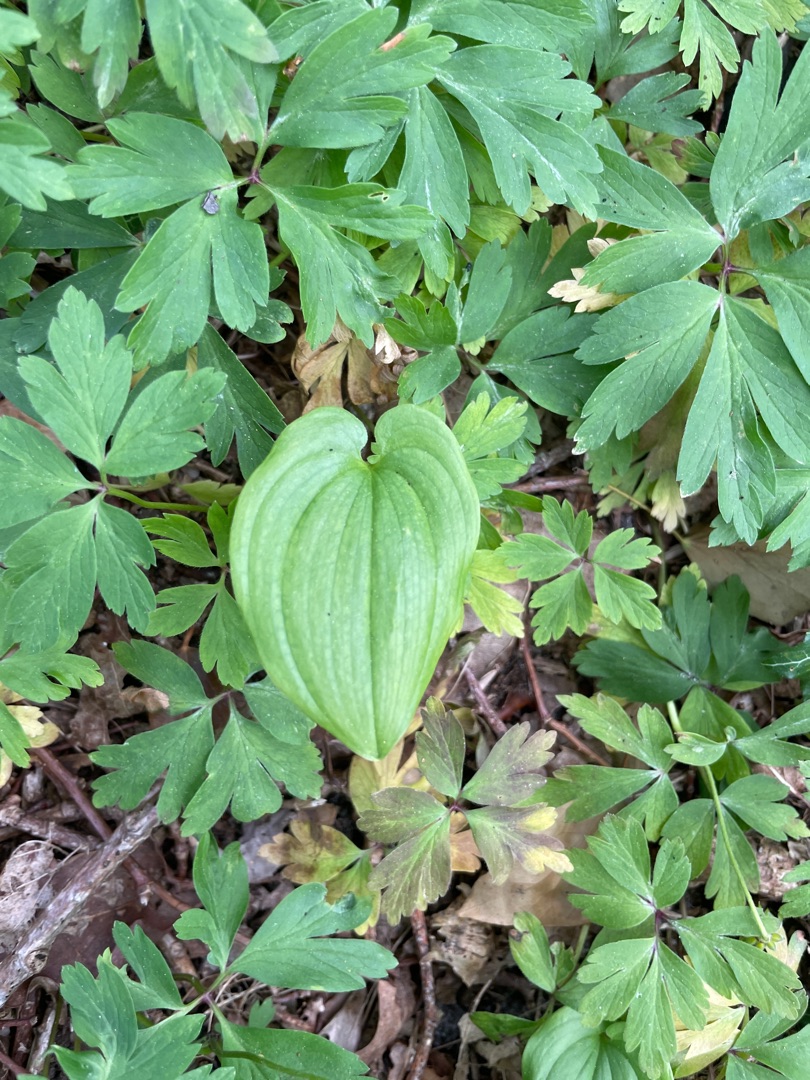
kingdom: Plantae
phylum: Tracheophyta
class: Liliopsida
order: Asparagales
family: Asparagaceae
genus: Maianthemum
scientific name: Maianthemum bifolium
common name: Majblomst
